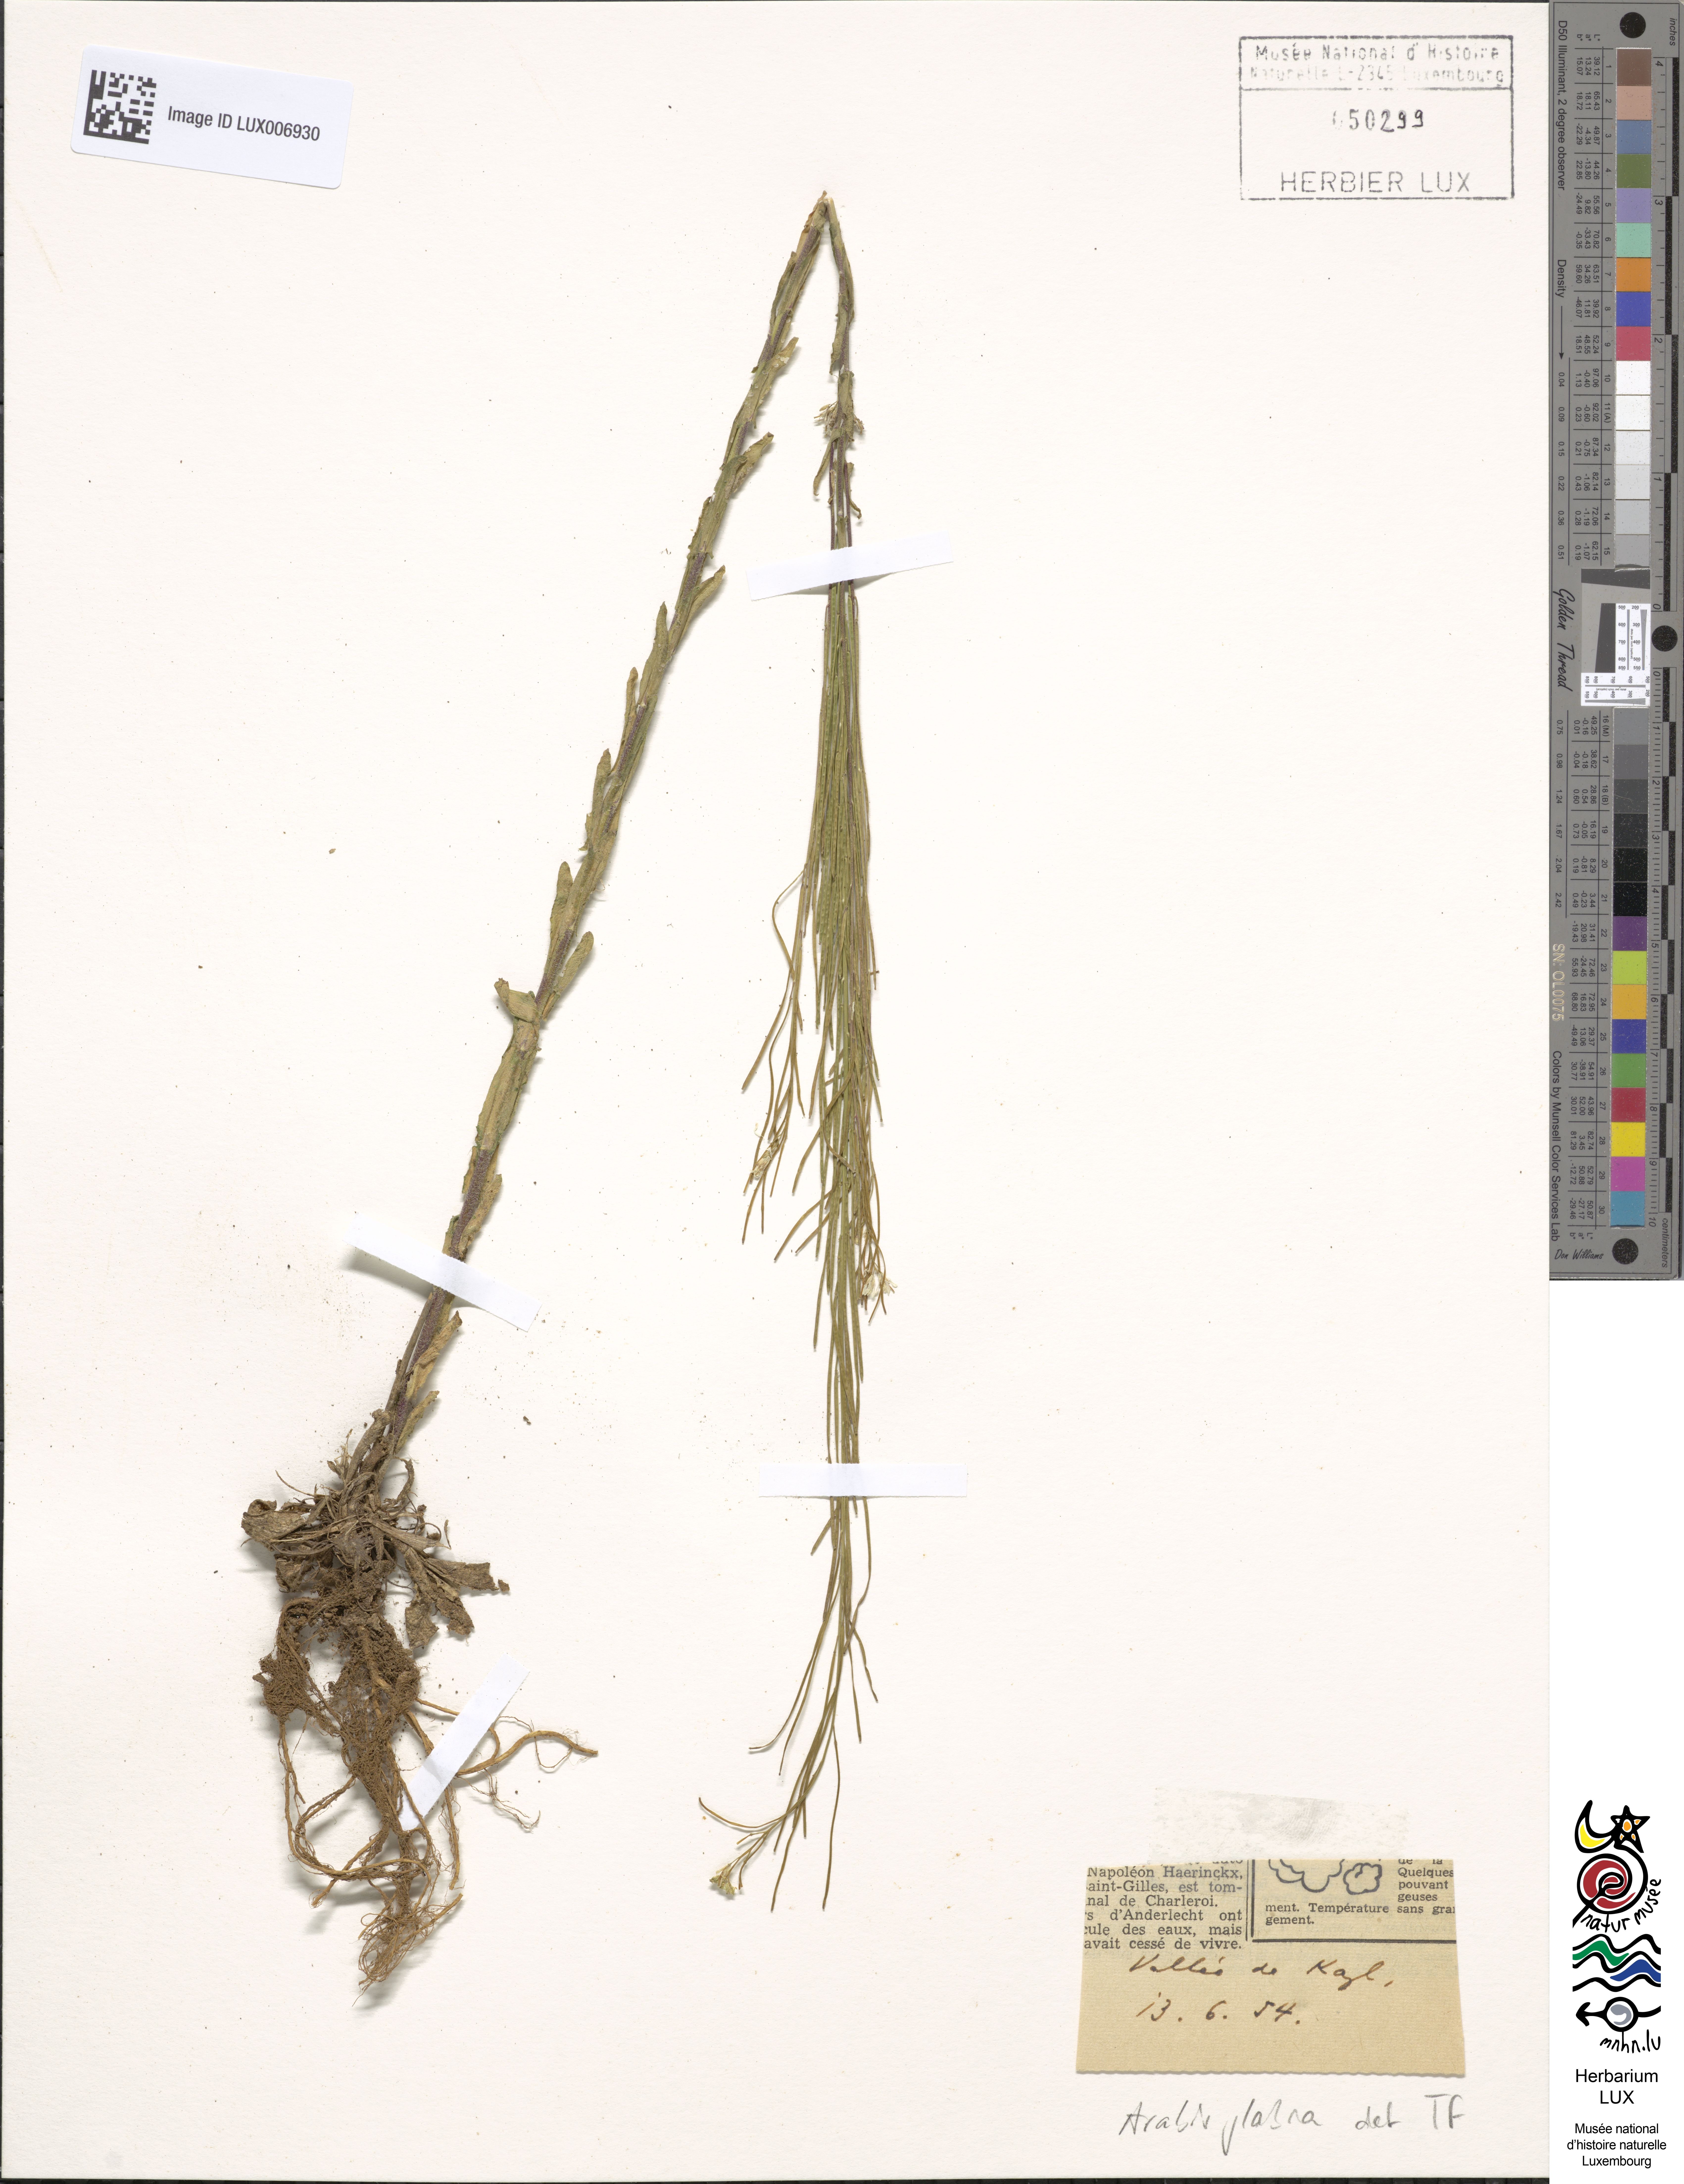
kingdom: Plantae
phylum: Tracheophyta
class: Magnoliopsida
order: Brassicales
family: Brassicaceae
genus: Turritis
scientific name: Turritis glabra
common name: Tower rockcress
